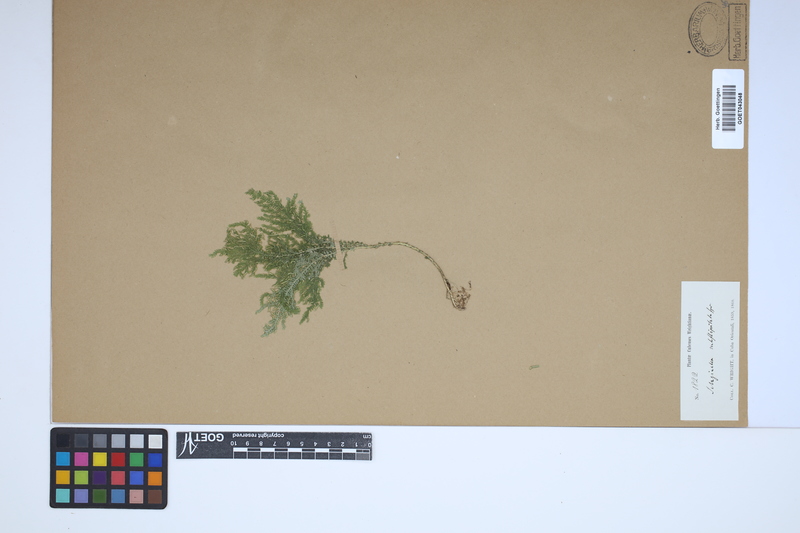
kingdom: Plantae
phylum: Tracheophyta
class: Lycopodiopsida
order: Selaginellales
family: Selaginellaceae
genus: Selaginella
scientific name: Selaginella substipitata
